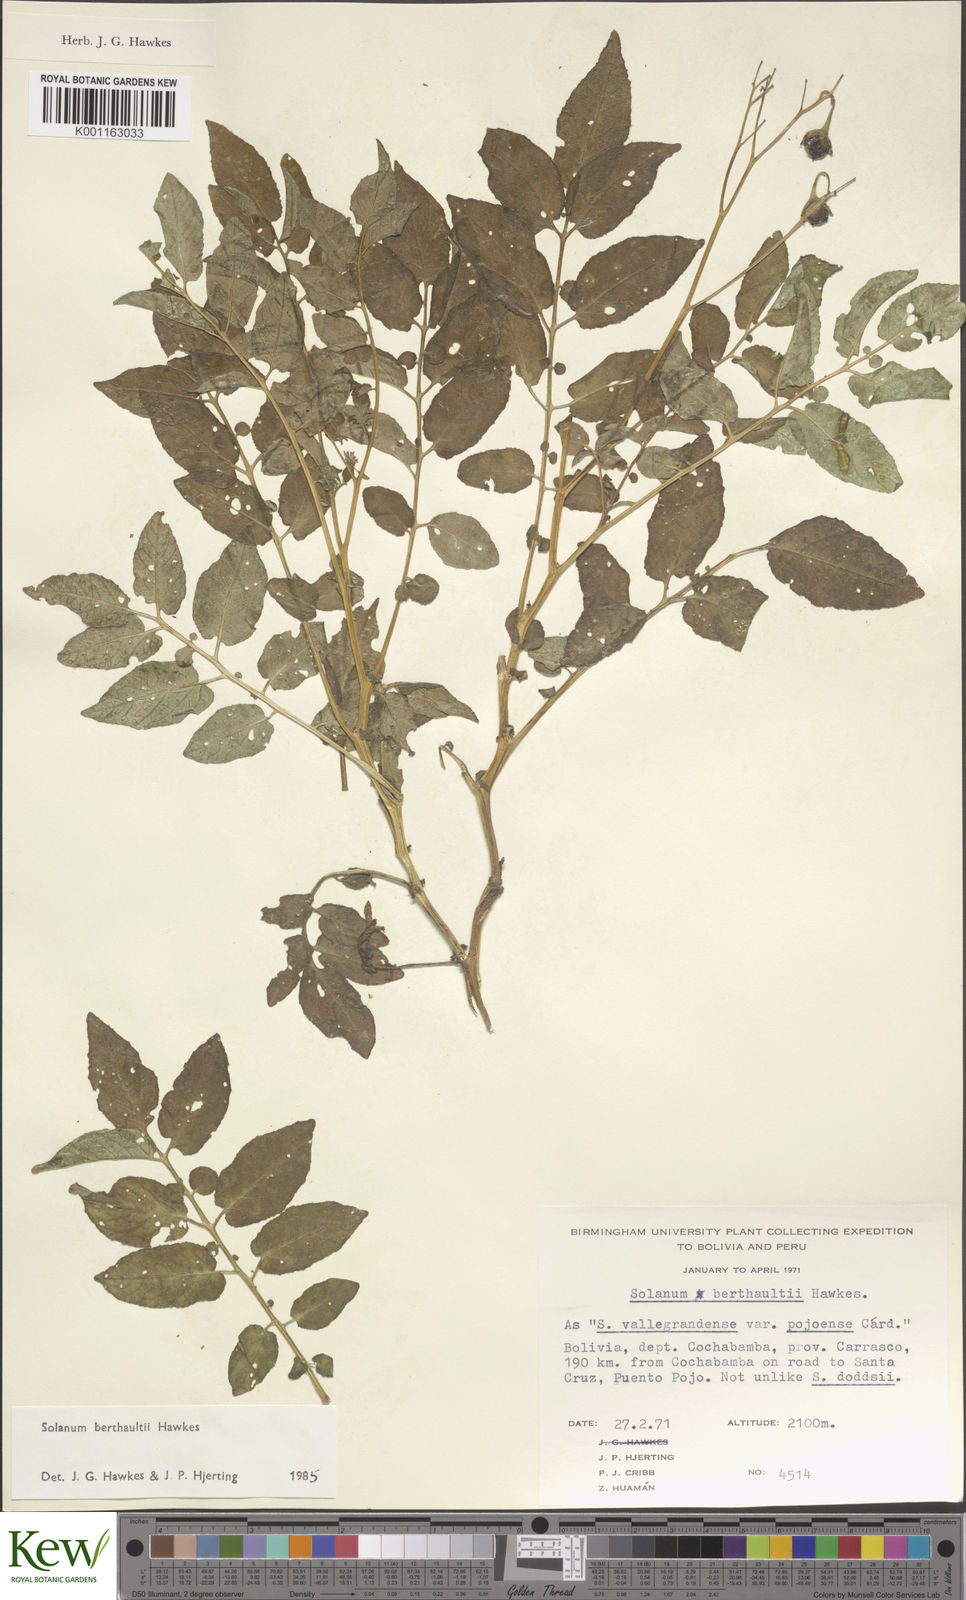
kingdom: Plantae
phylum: Tracheophyta
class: Magnoliopsida
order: Solanales
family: Solanaceae
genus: Solanum
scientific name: Solanum berthaultii
